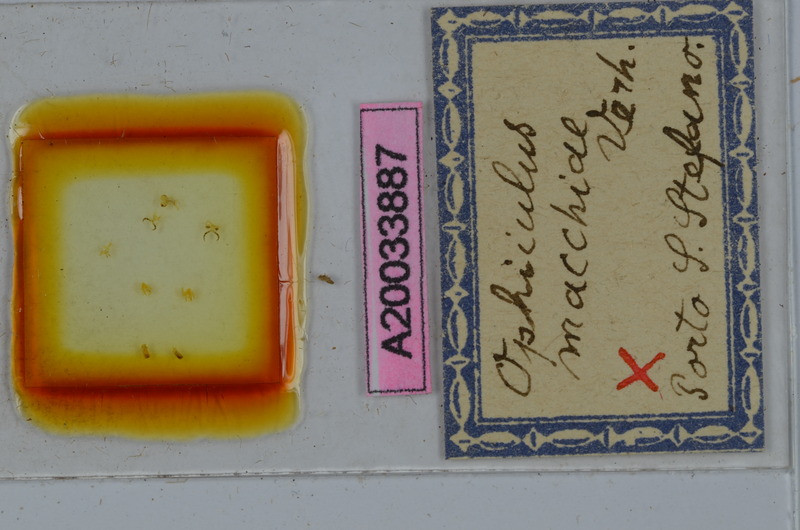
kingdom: Animalia
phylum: Arthropoda
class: Diplopoda
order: Julida
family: Julidae
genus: Ophyiulus
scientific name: Ophyiulus macchiae
